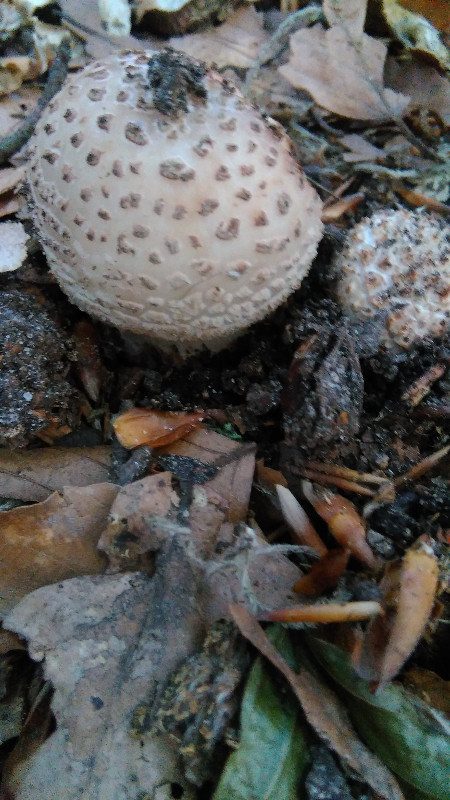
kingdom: Fungi
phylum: Basidiomycota
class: Agaricomycetes
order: Agaricales
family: Amanitaceae
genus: Amanita
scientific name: Amanita rubescens
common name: rødmende fluesvamp
